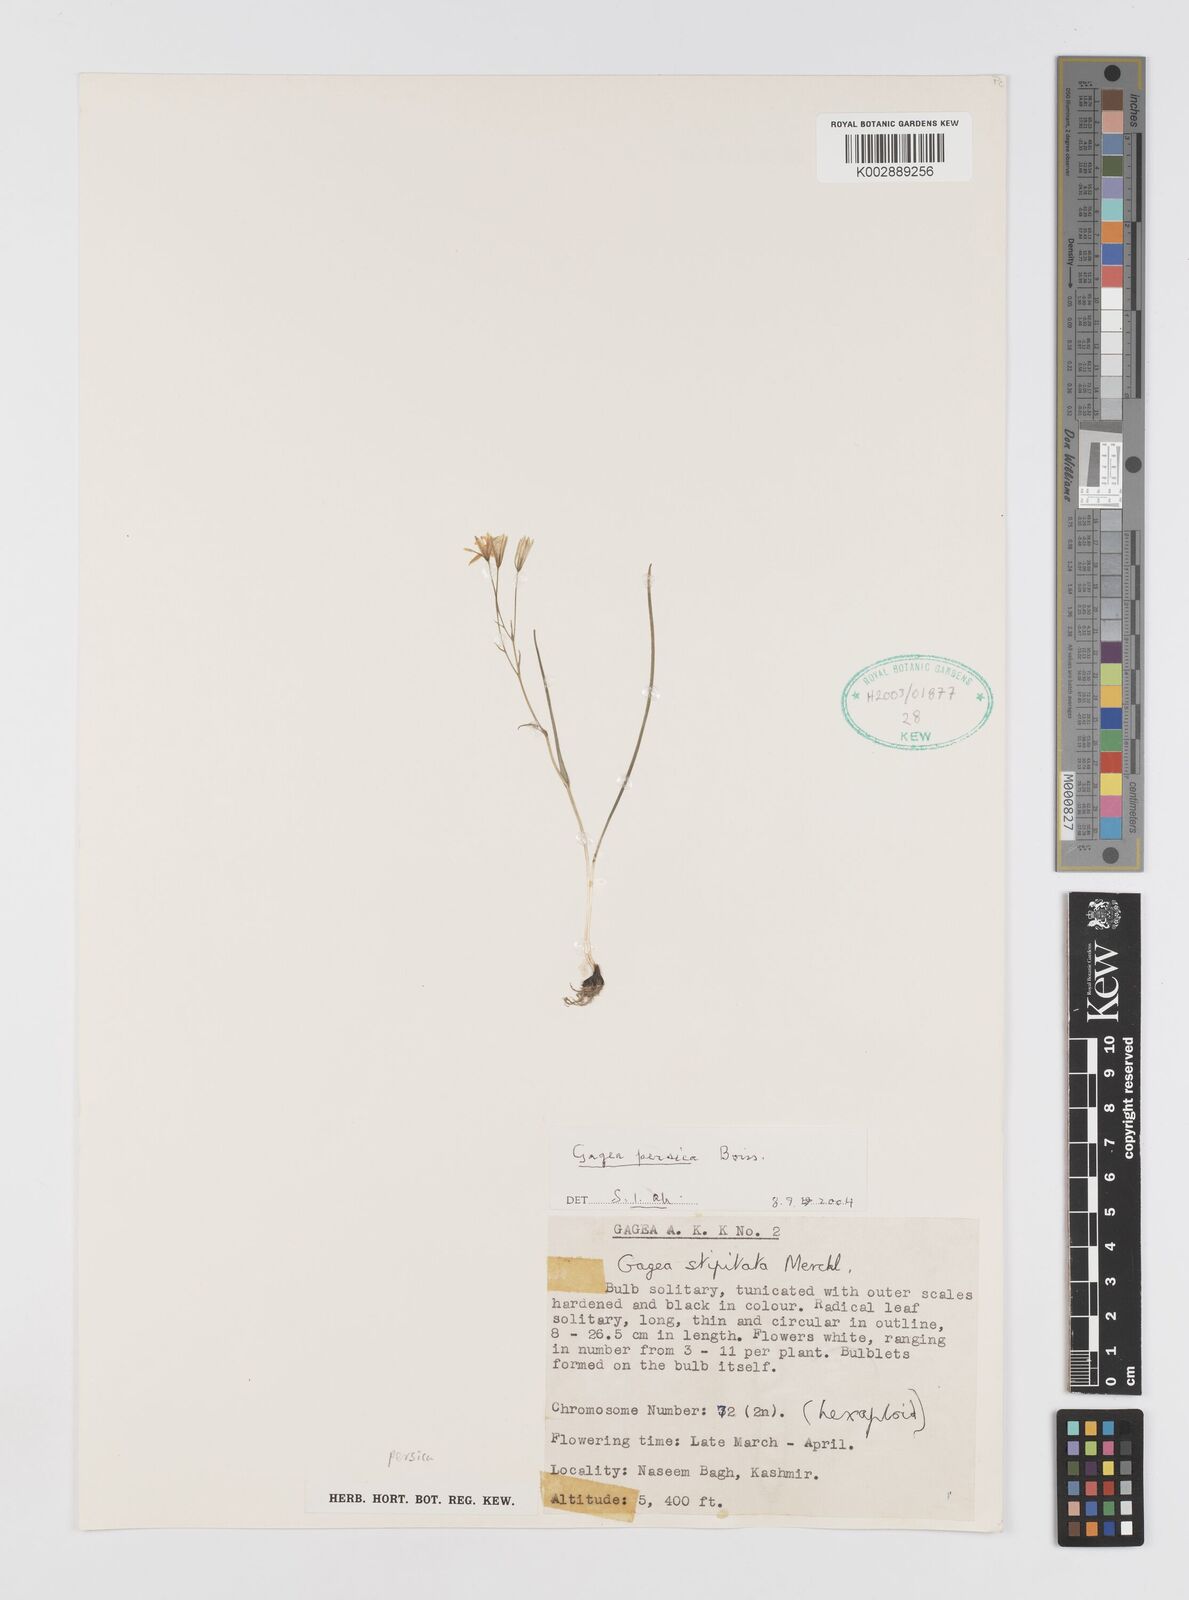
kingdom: Plantae
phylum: Tracheophyta
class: Liliopsida
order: Liliales
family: Liliaceae
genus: Gagea
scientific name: Gagea gageoides
